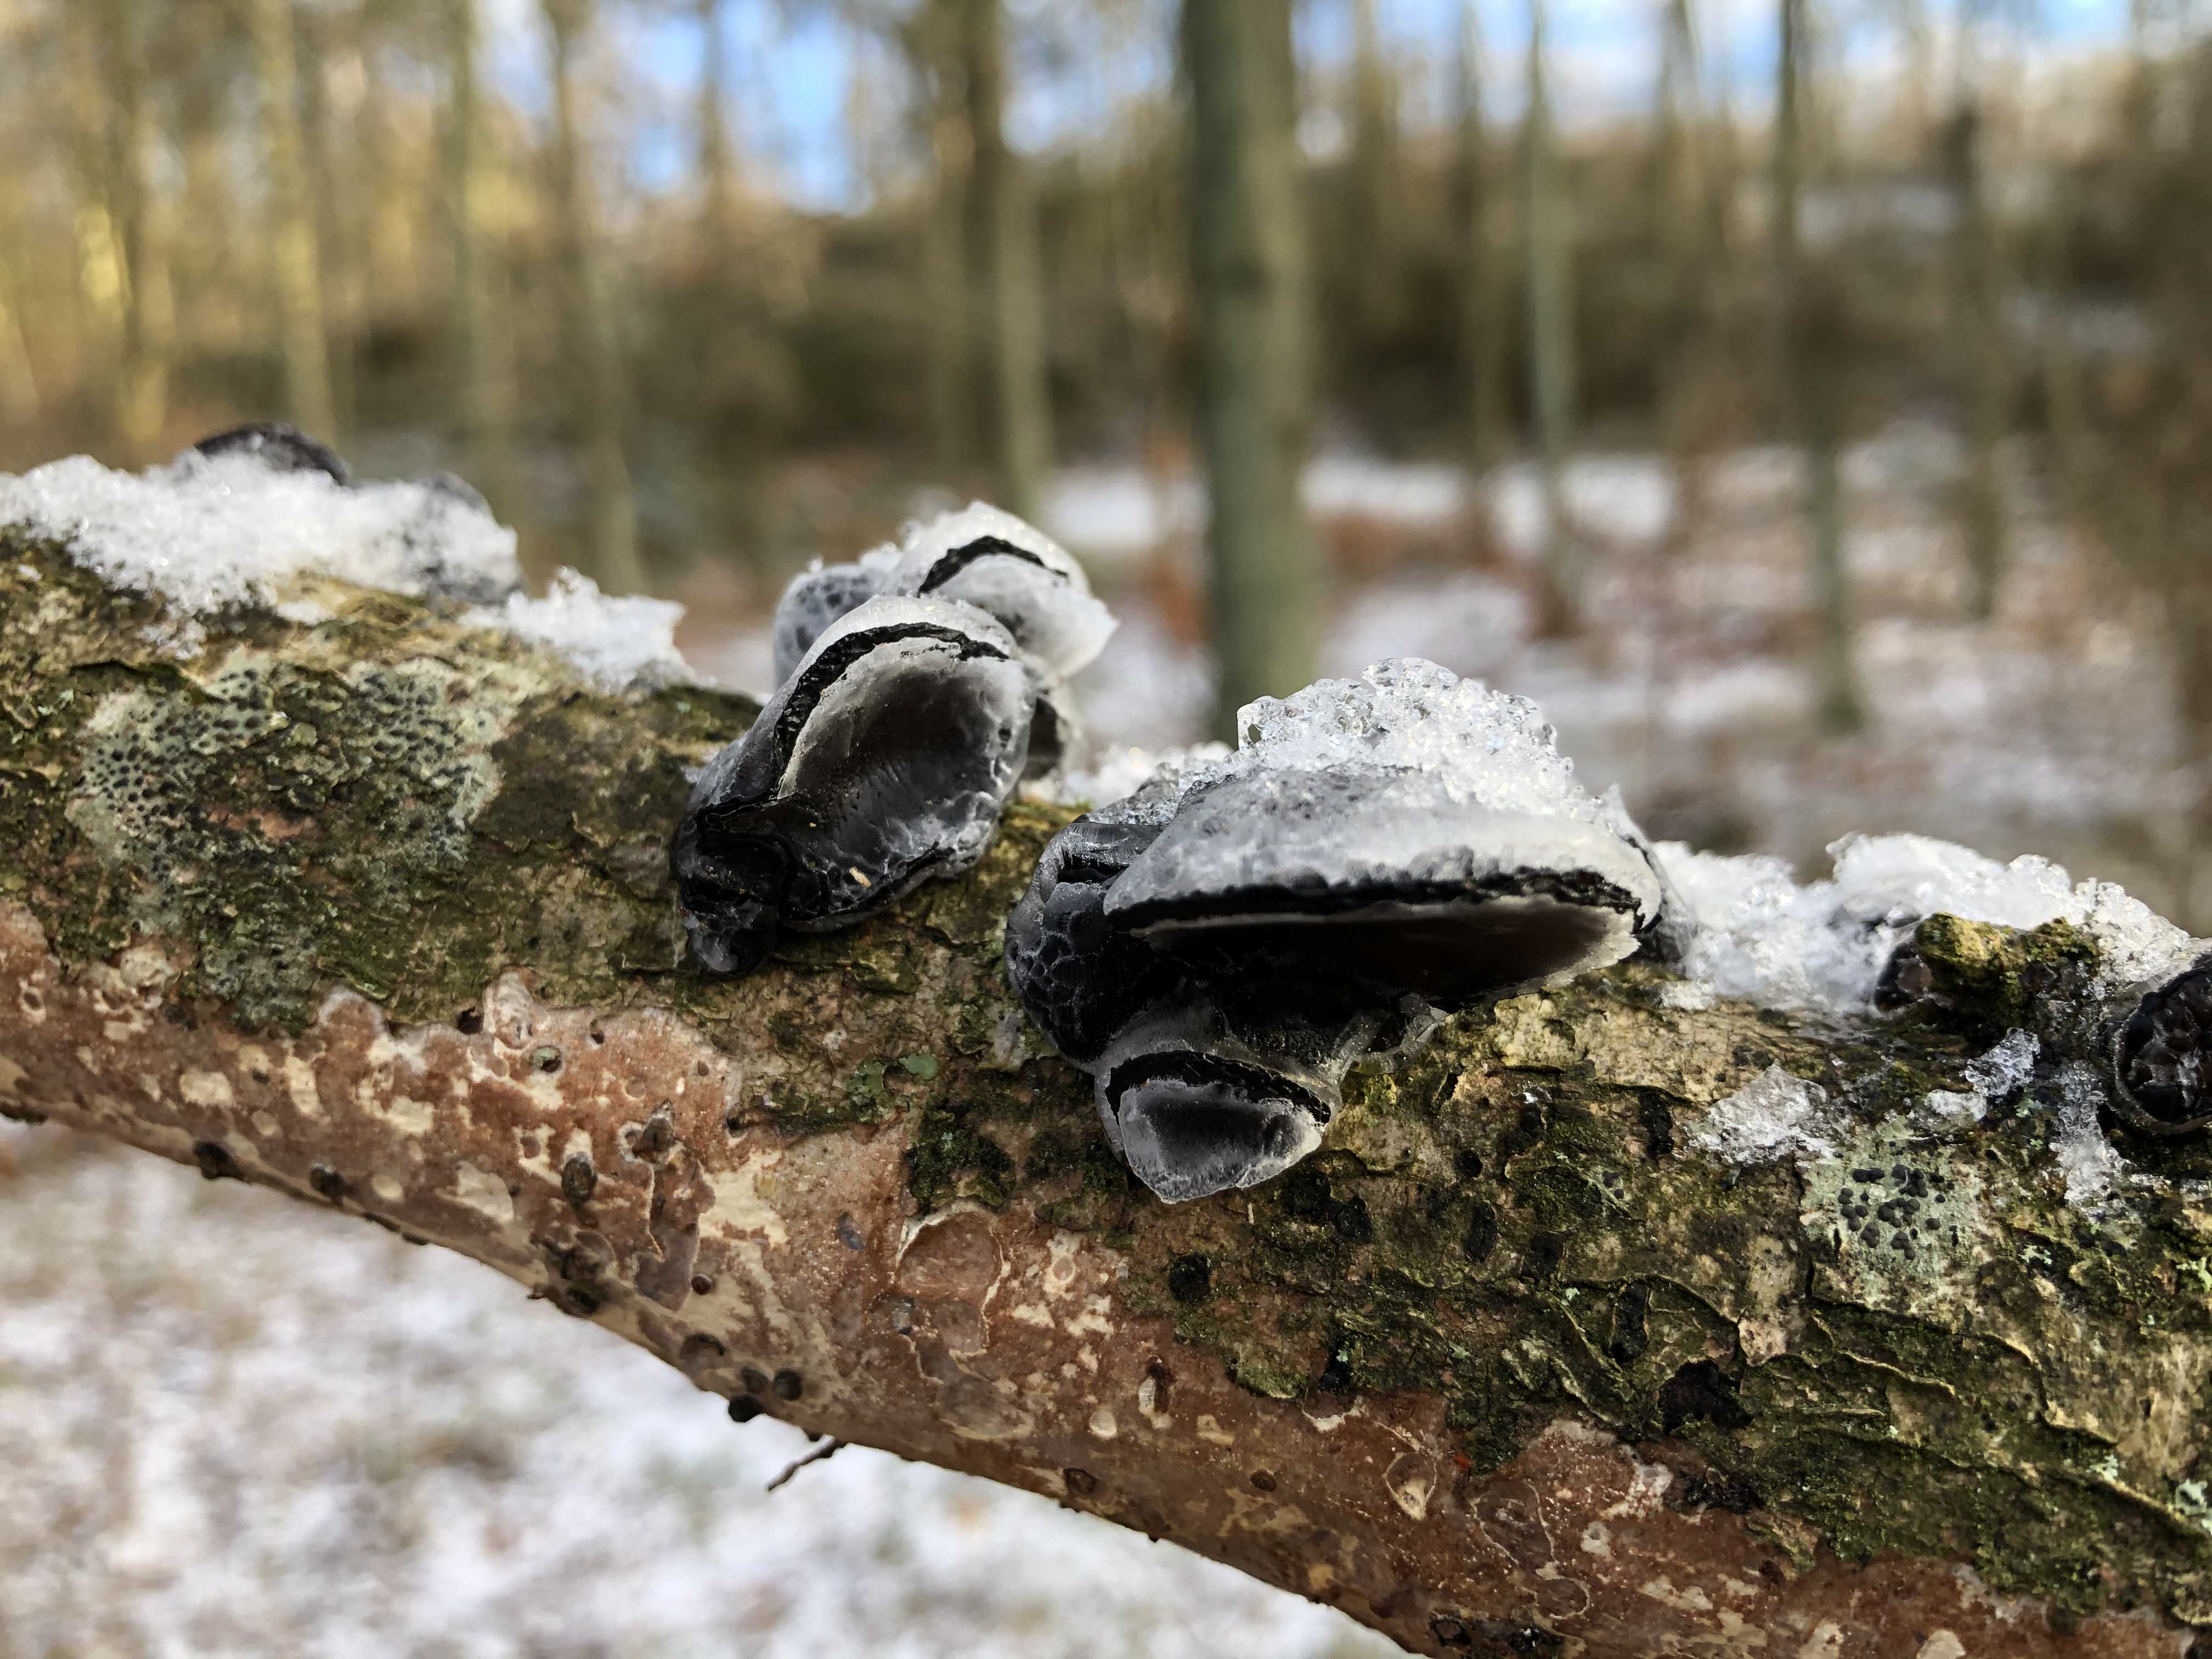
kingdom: Fungi
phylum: Basidiomycota
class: Agaricomycetes
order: Auriculariales
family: Auriculariaceae
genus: Exidia
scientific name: Exidia glandulosa
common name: ege-bævretop
